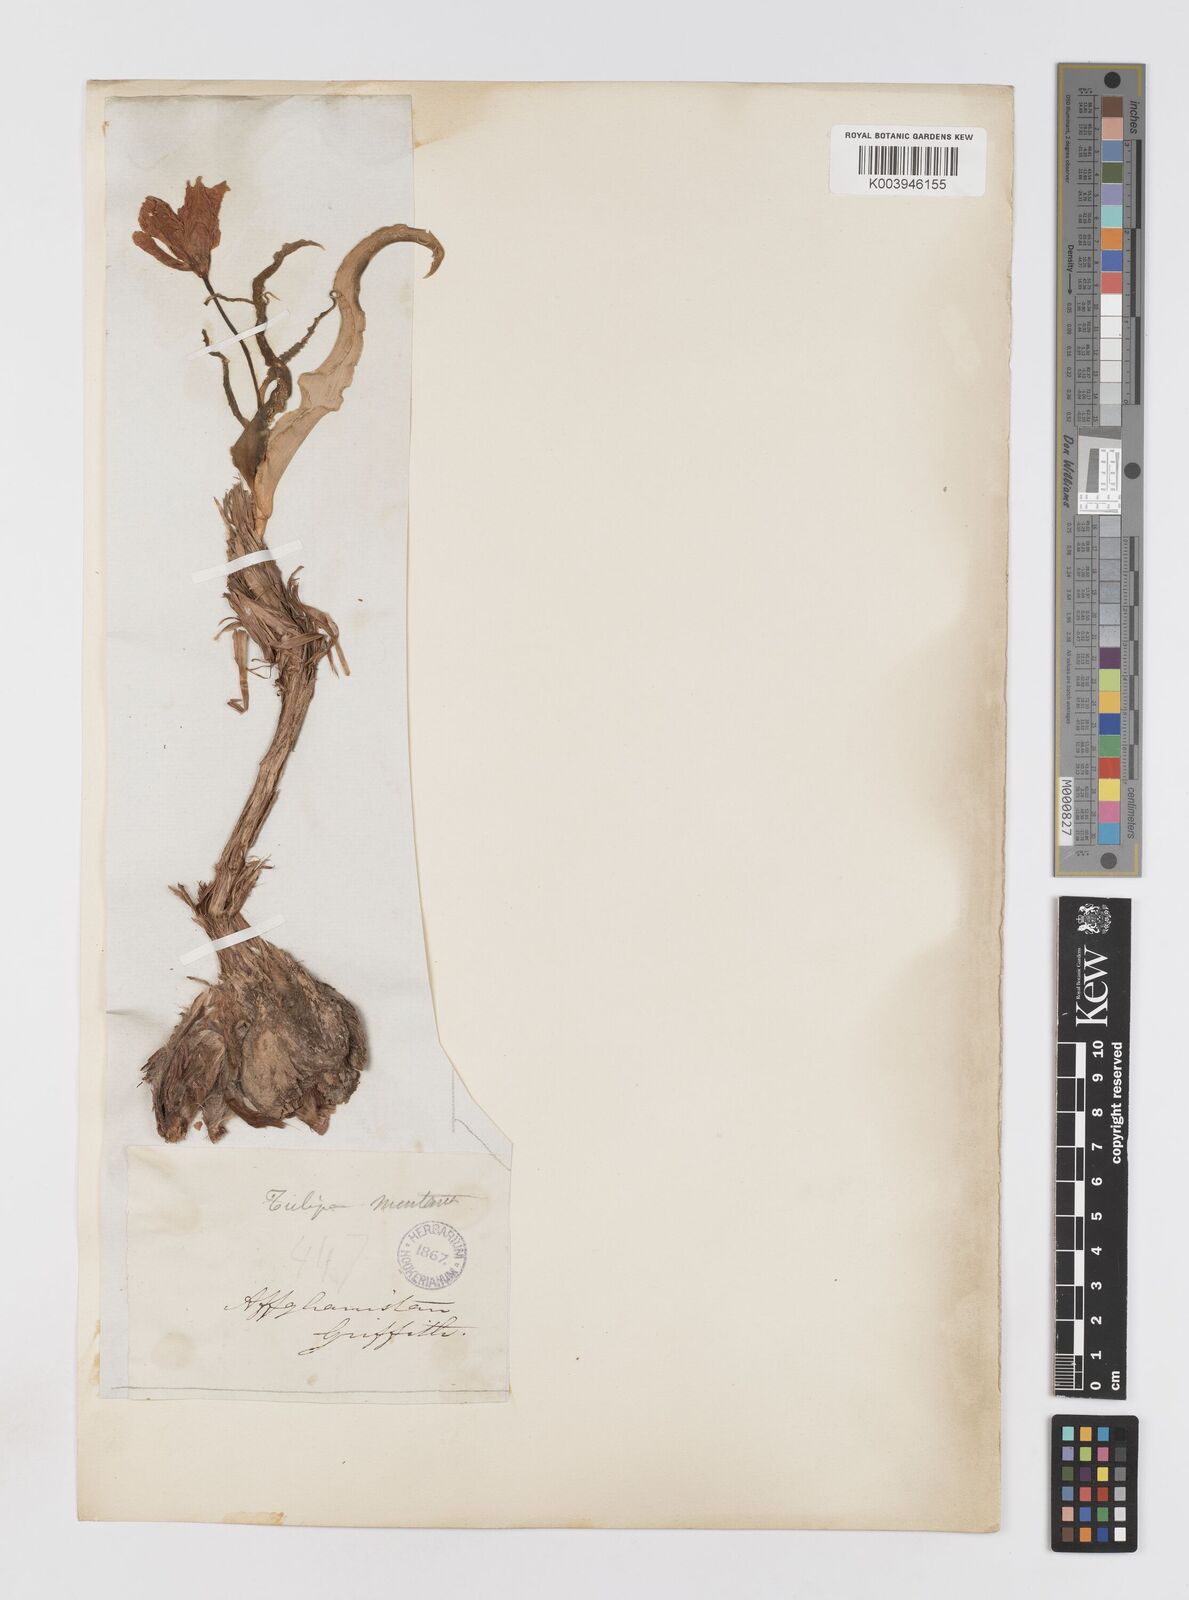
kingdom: Plantae
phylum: Tracheophyta
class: Liliopsida
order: Liliales
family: Liliaceae
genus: Tulipa
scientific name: Tulipa borszczowii
